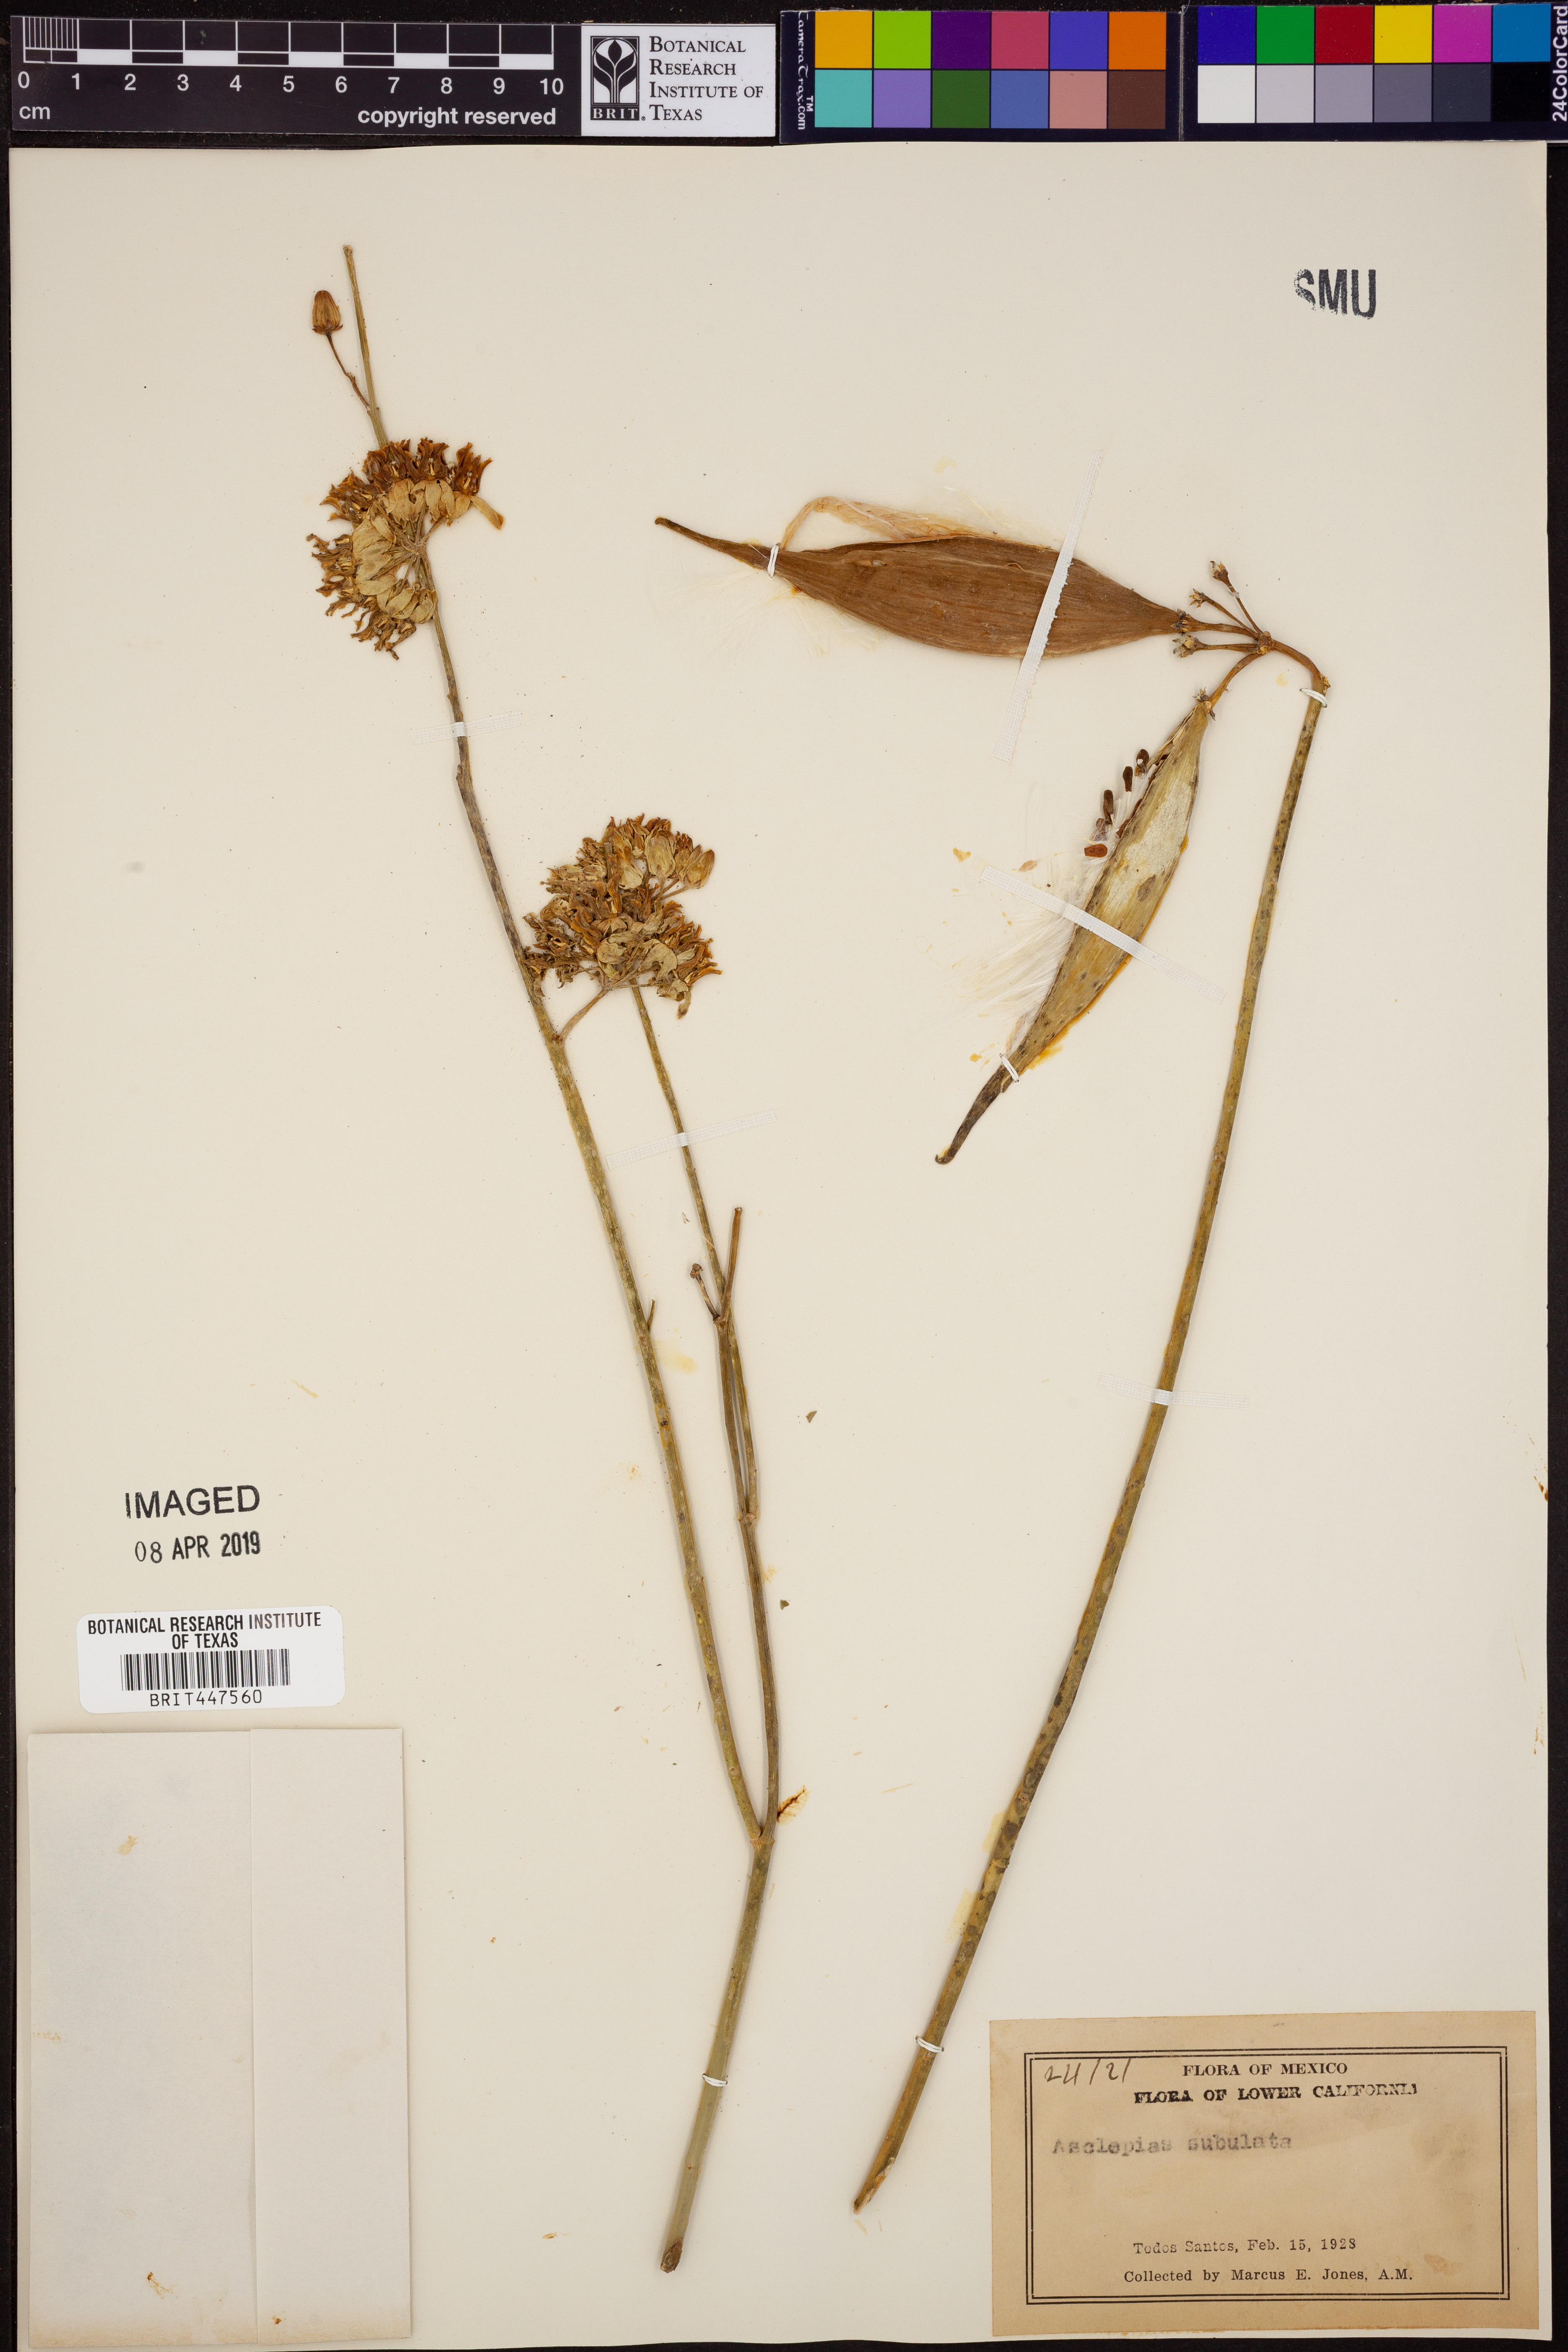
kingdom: Plantae
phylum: Tracheophyta
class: Magnoliopsida
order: Gentianales
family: Apocynaceae
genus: Asclepias
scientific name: Asclepias subulata
